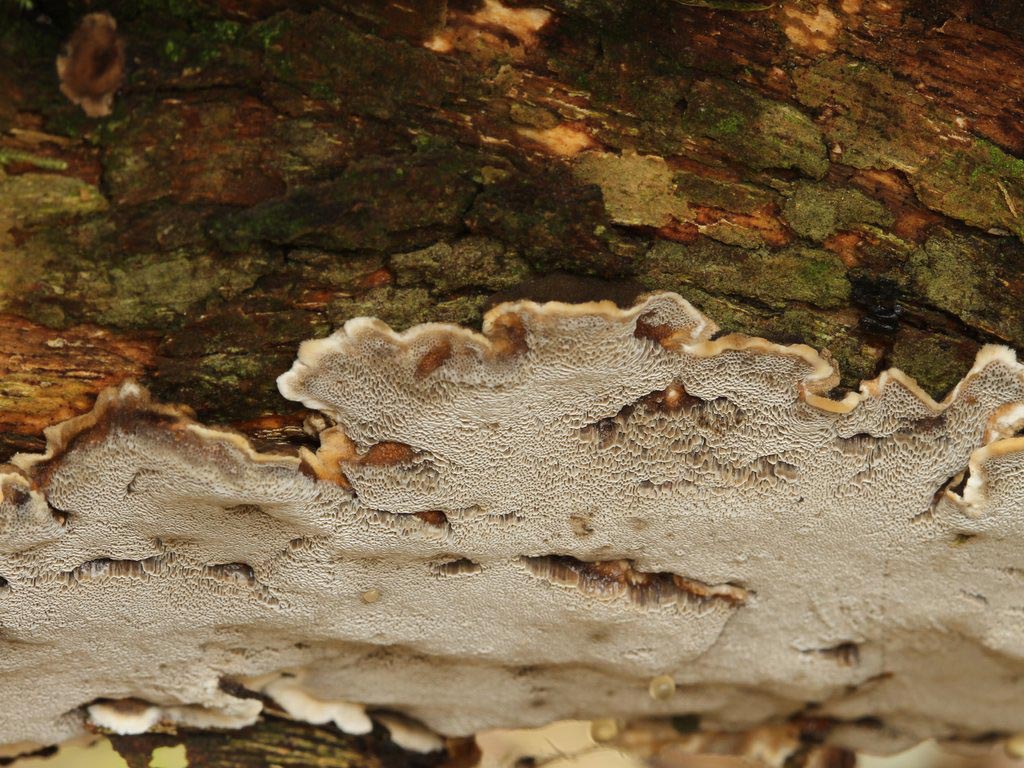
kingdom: Fungi
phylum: Basidiomycota
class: Agaricomycetes
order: Polyporales
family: Phanerochaetaceae
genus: Bjerkandera
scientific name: Bjerkandera adusta
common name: sveden sodporesvamp
